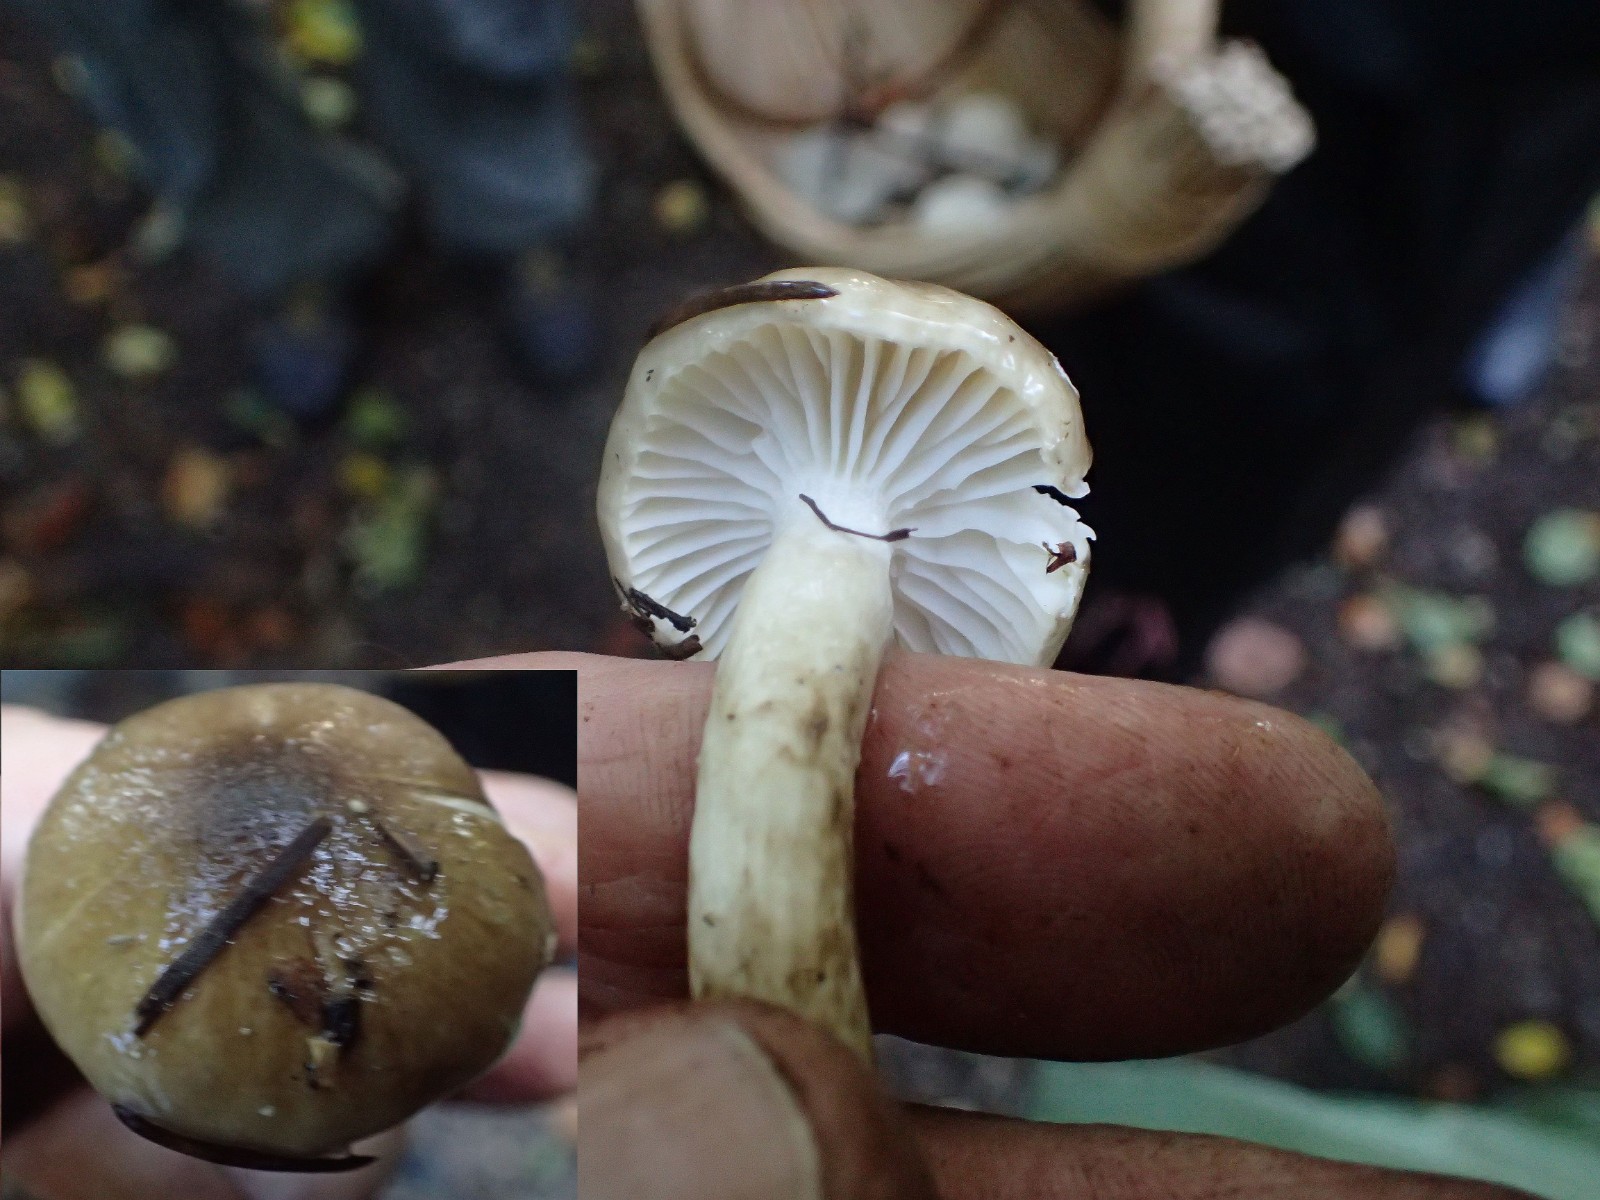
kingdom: Fungi
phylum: Basidiomycota
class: Agaricomycetes
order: Agaricales
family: Hygrophoraceae
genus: Hygrophorus
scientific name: Hygrophorus
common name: sneglehat
